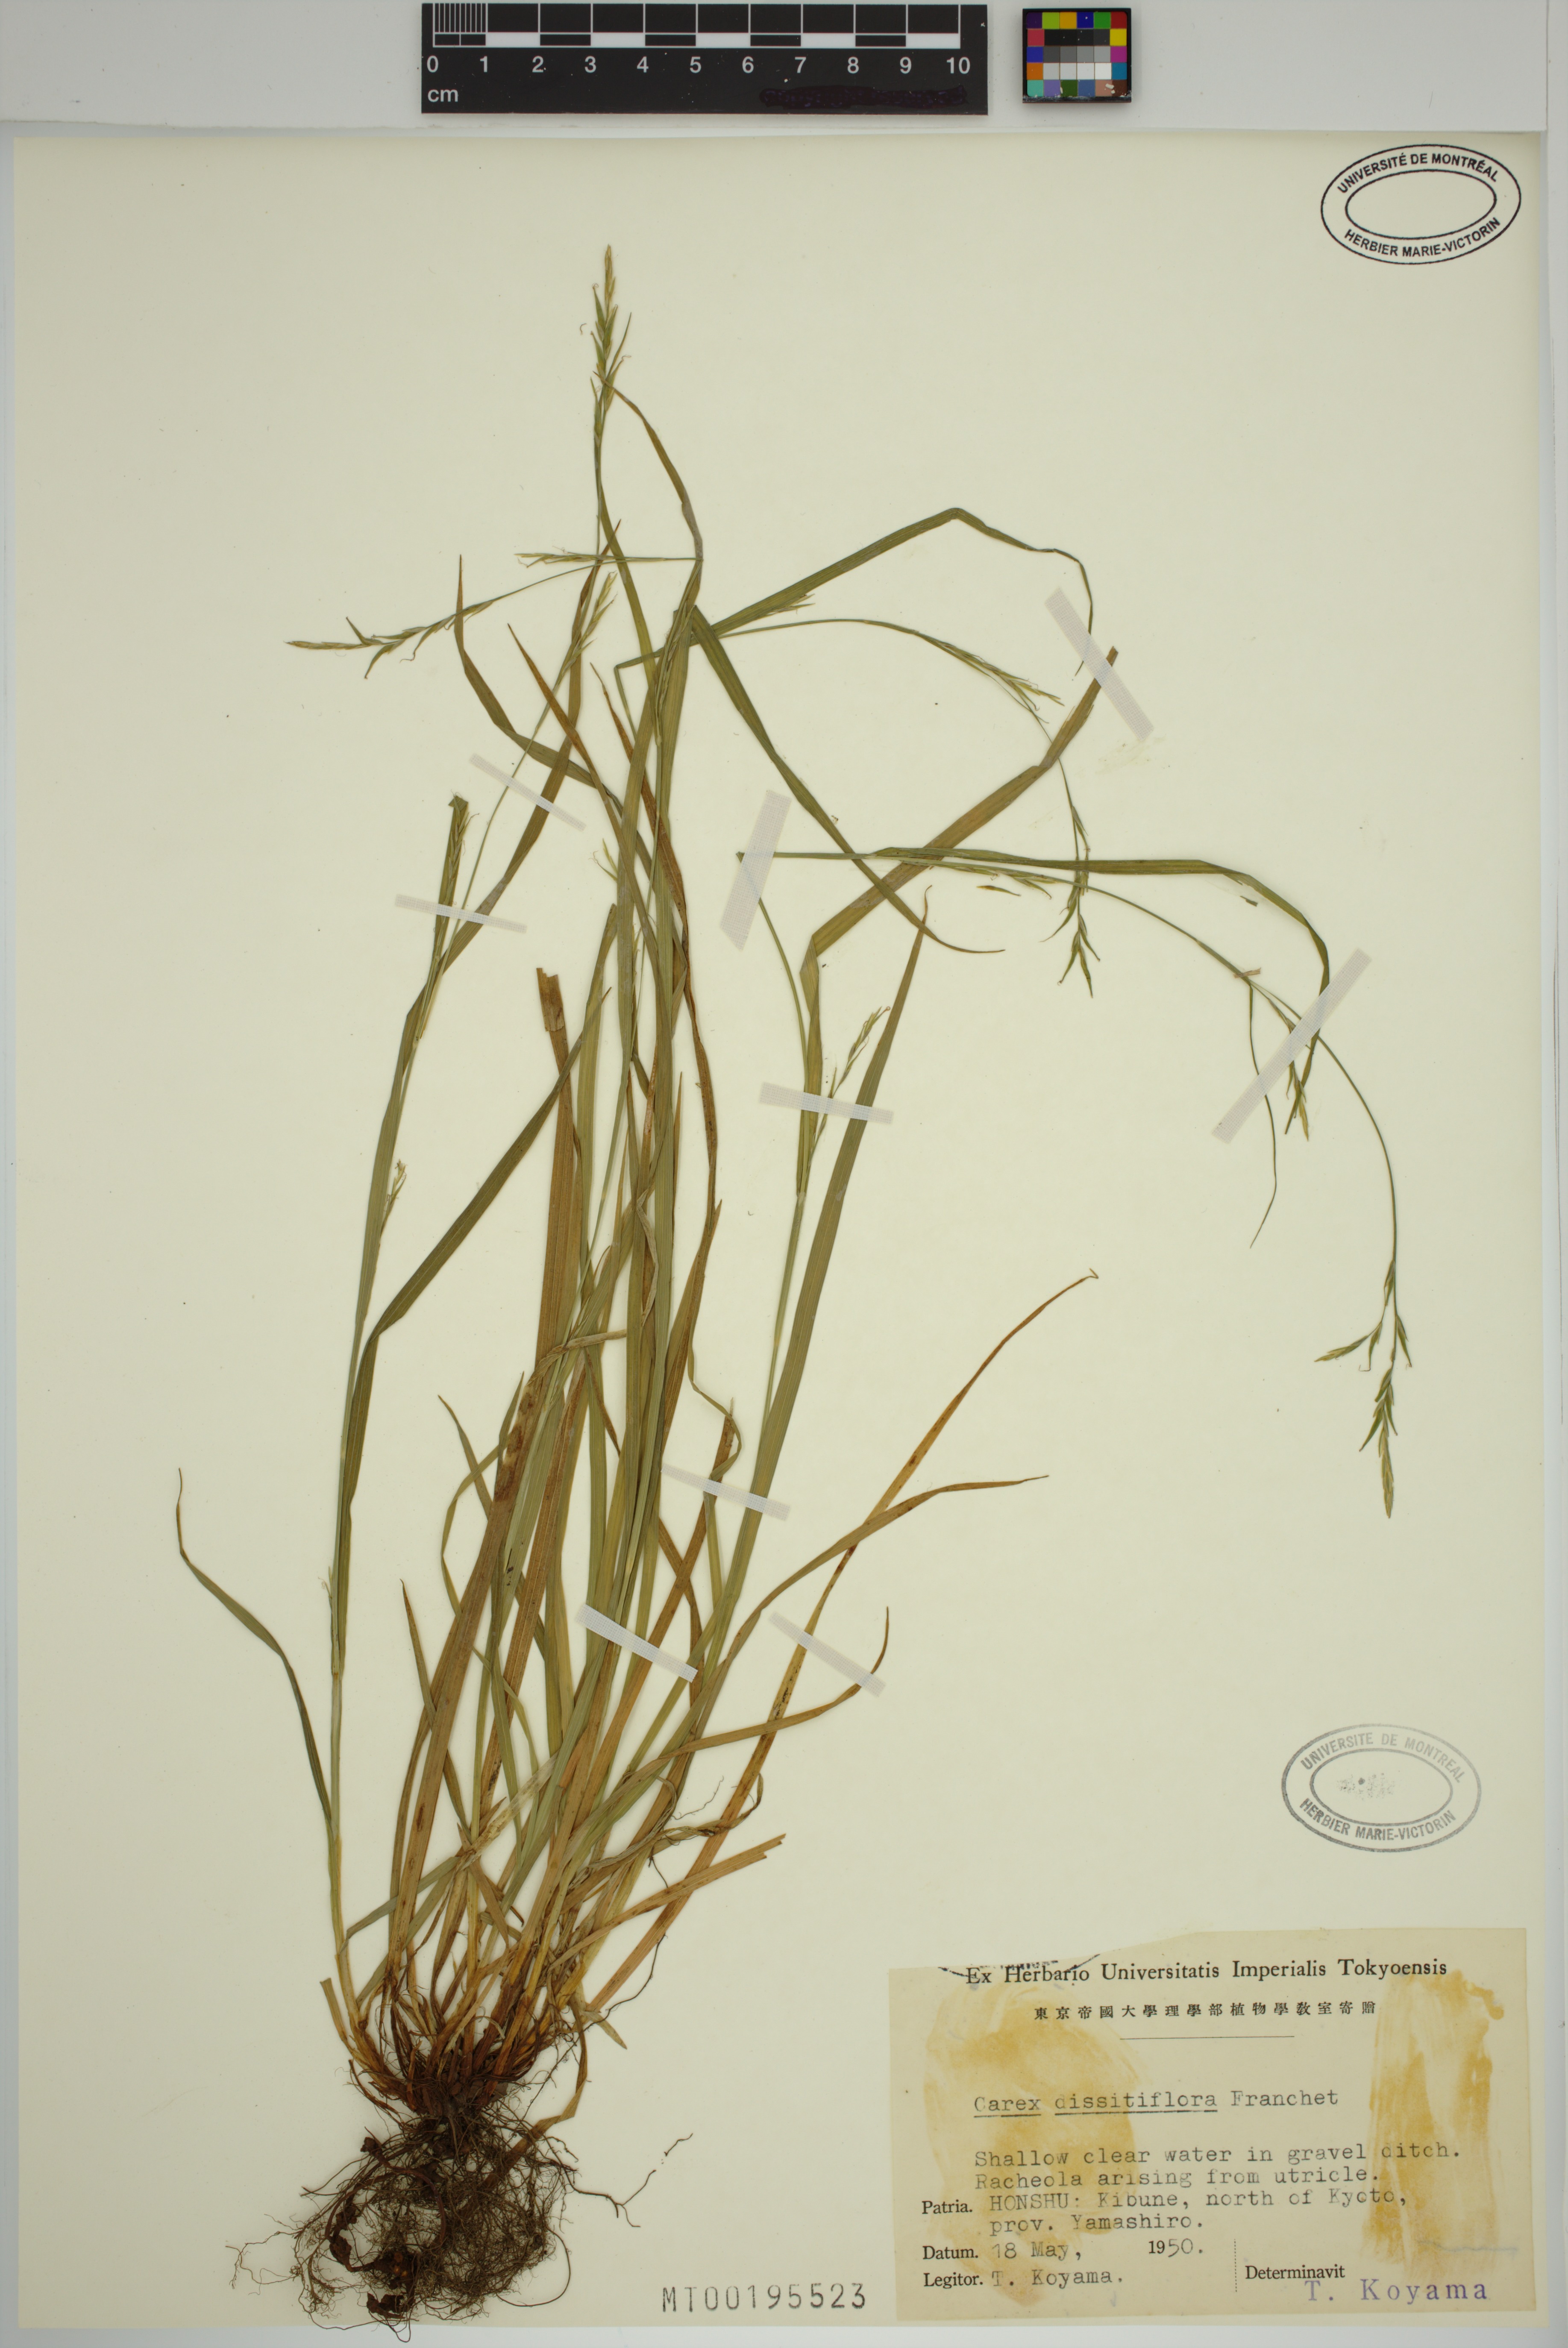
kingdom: Plantae
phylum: Tracheophyta
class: Liliopsida
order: Poales
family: Cyperaceae
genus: Carex
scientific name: Carex dissitiflora
